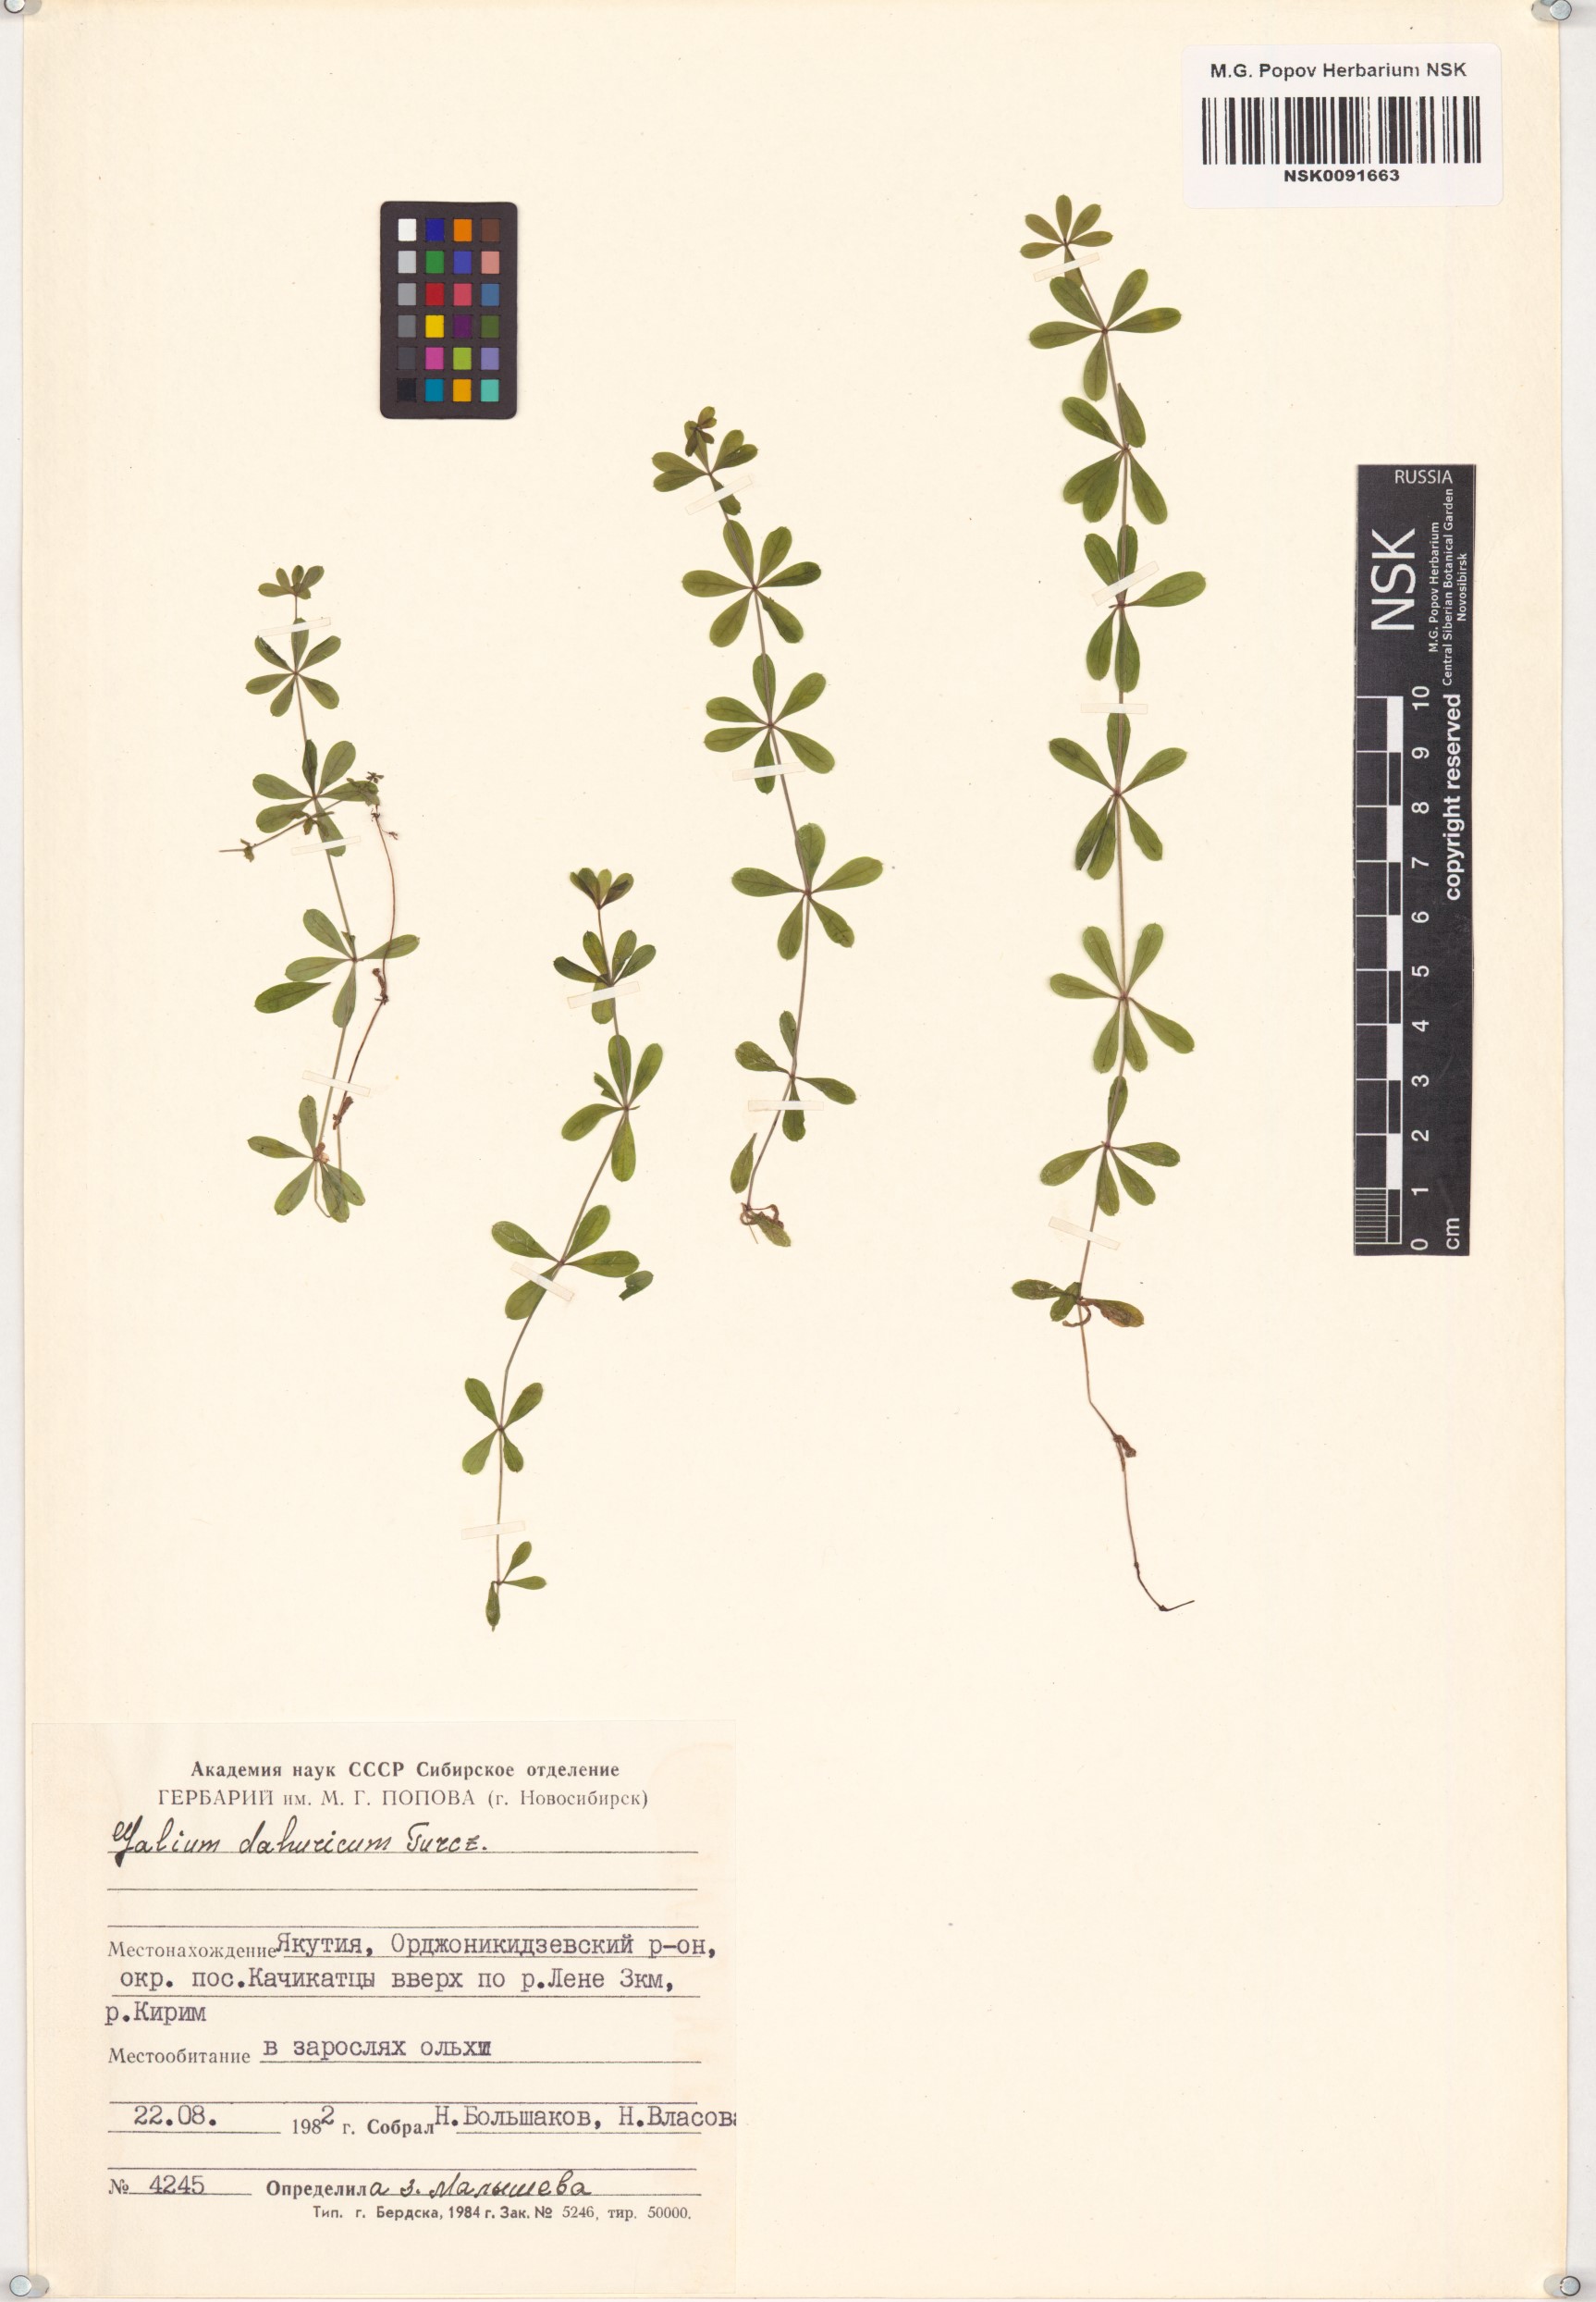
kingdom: Plantae
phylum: Tracheophyta
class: Magnoliopsida
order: Gentianales
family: Rubiaceae
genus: Galium
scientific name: Galium dahuricum
